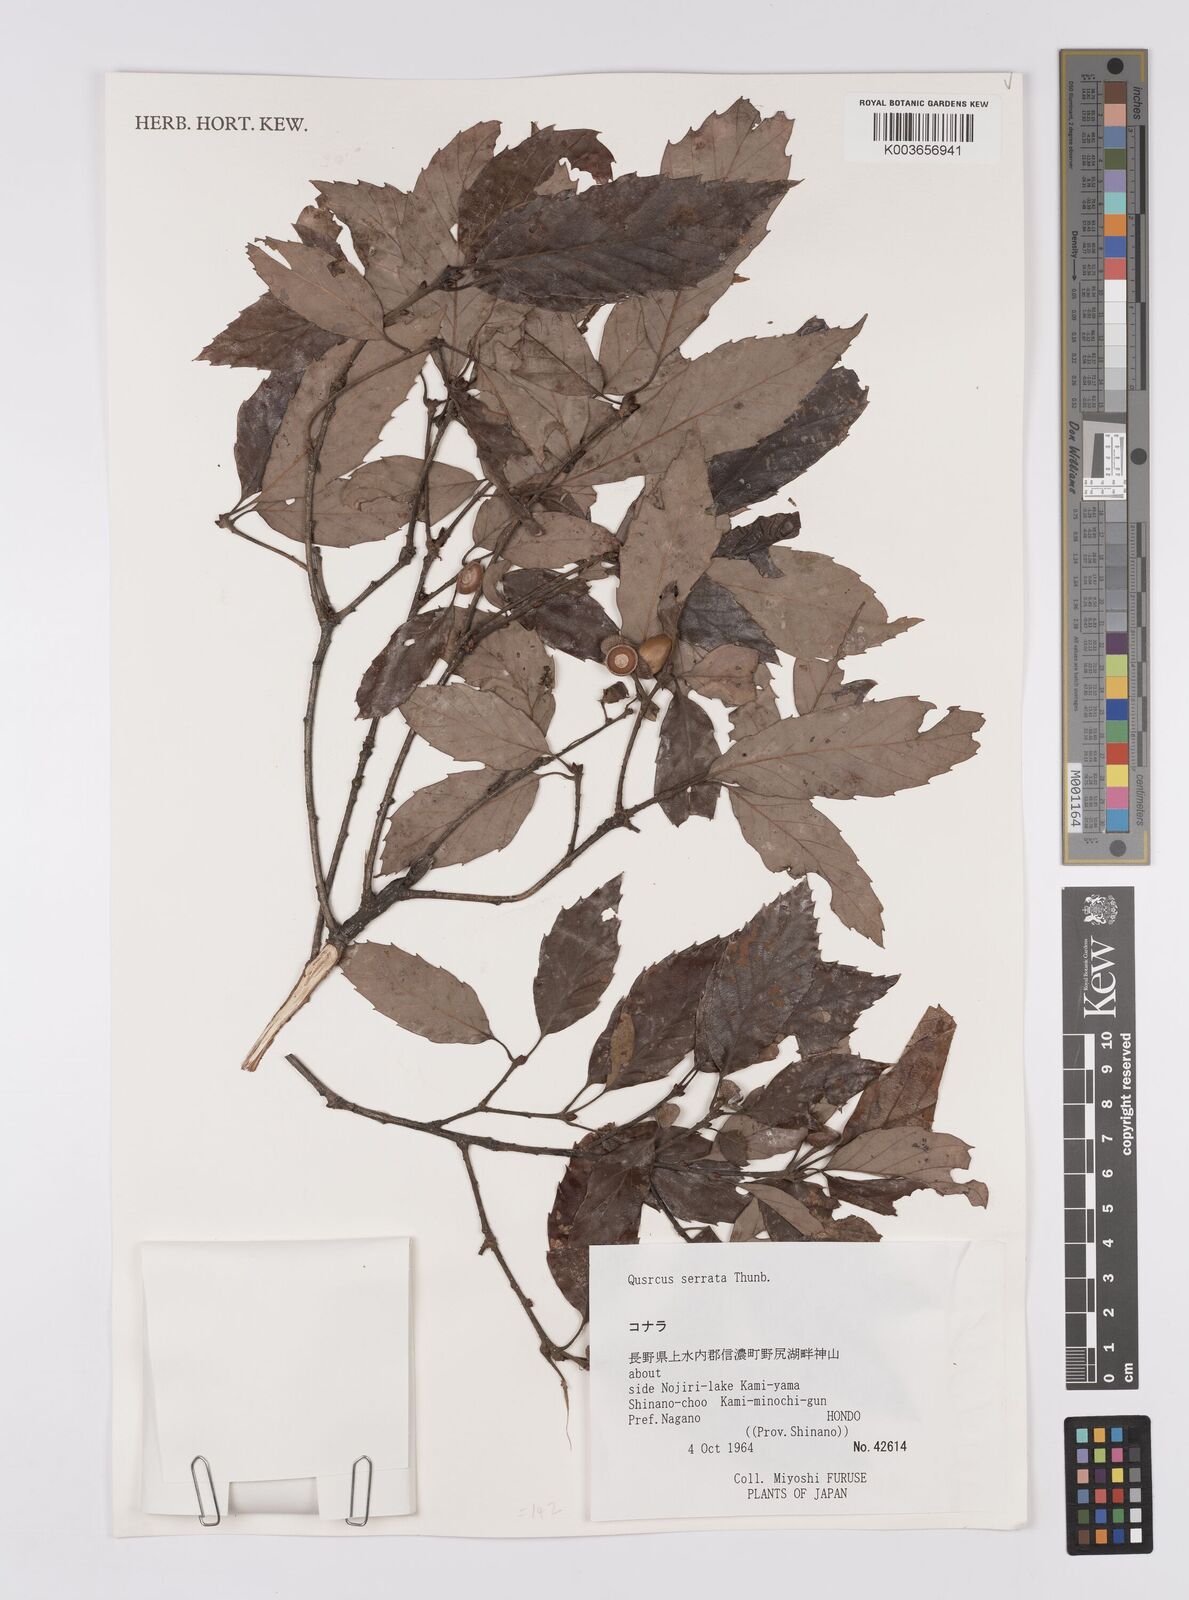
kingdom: Plantae
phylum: Tracheophyta
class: Magnoliopsida
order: Fagales
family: Fagaceae
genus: Quercus
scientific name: Quercus serrata
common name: Bao li
